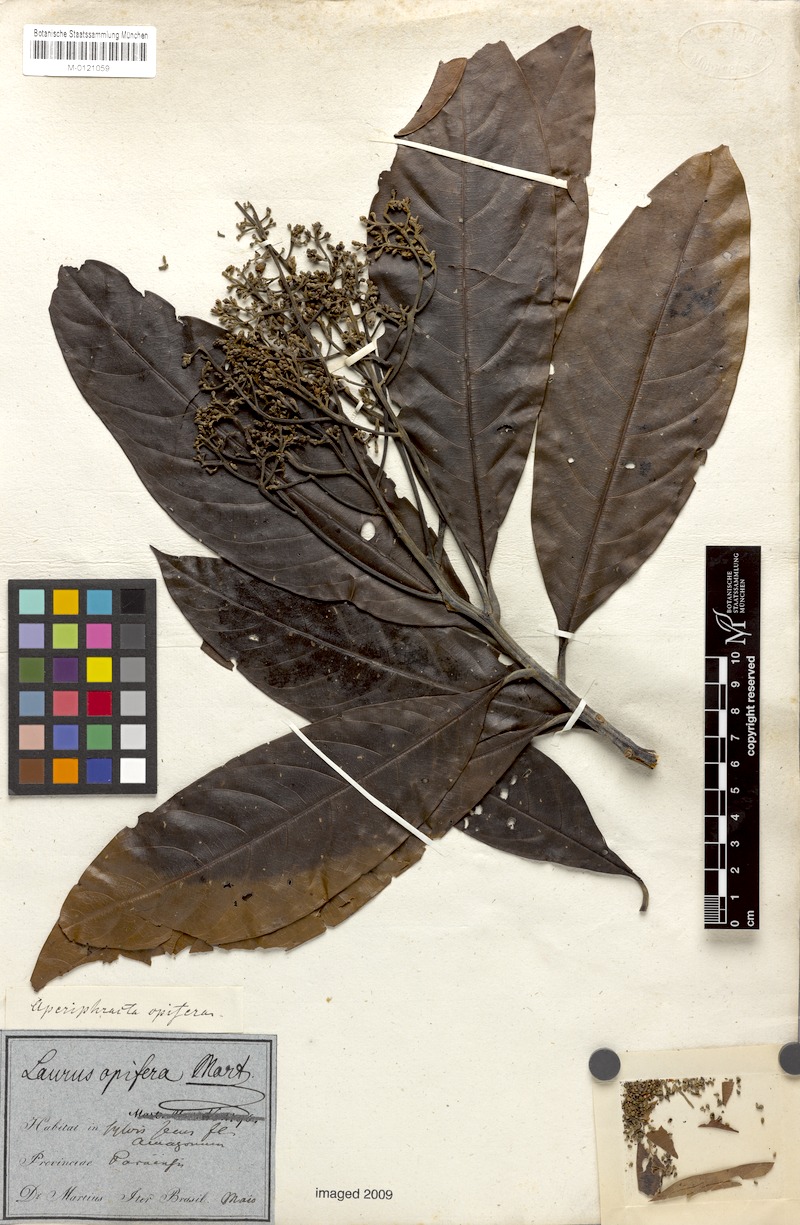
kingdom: Plantae
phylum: Tracheophyta
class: Magnoliopsida
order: Laurales
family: Lauraceae
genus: Mespilodaphne
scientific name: Mespilodaphne opifera
